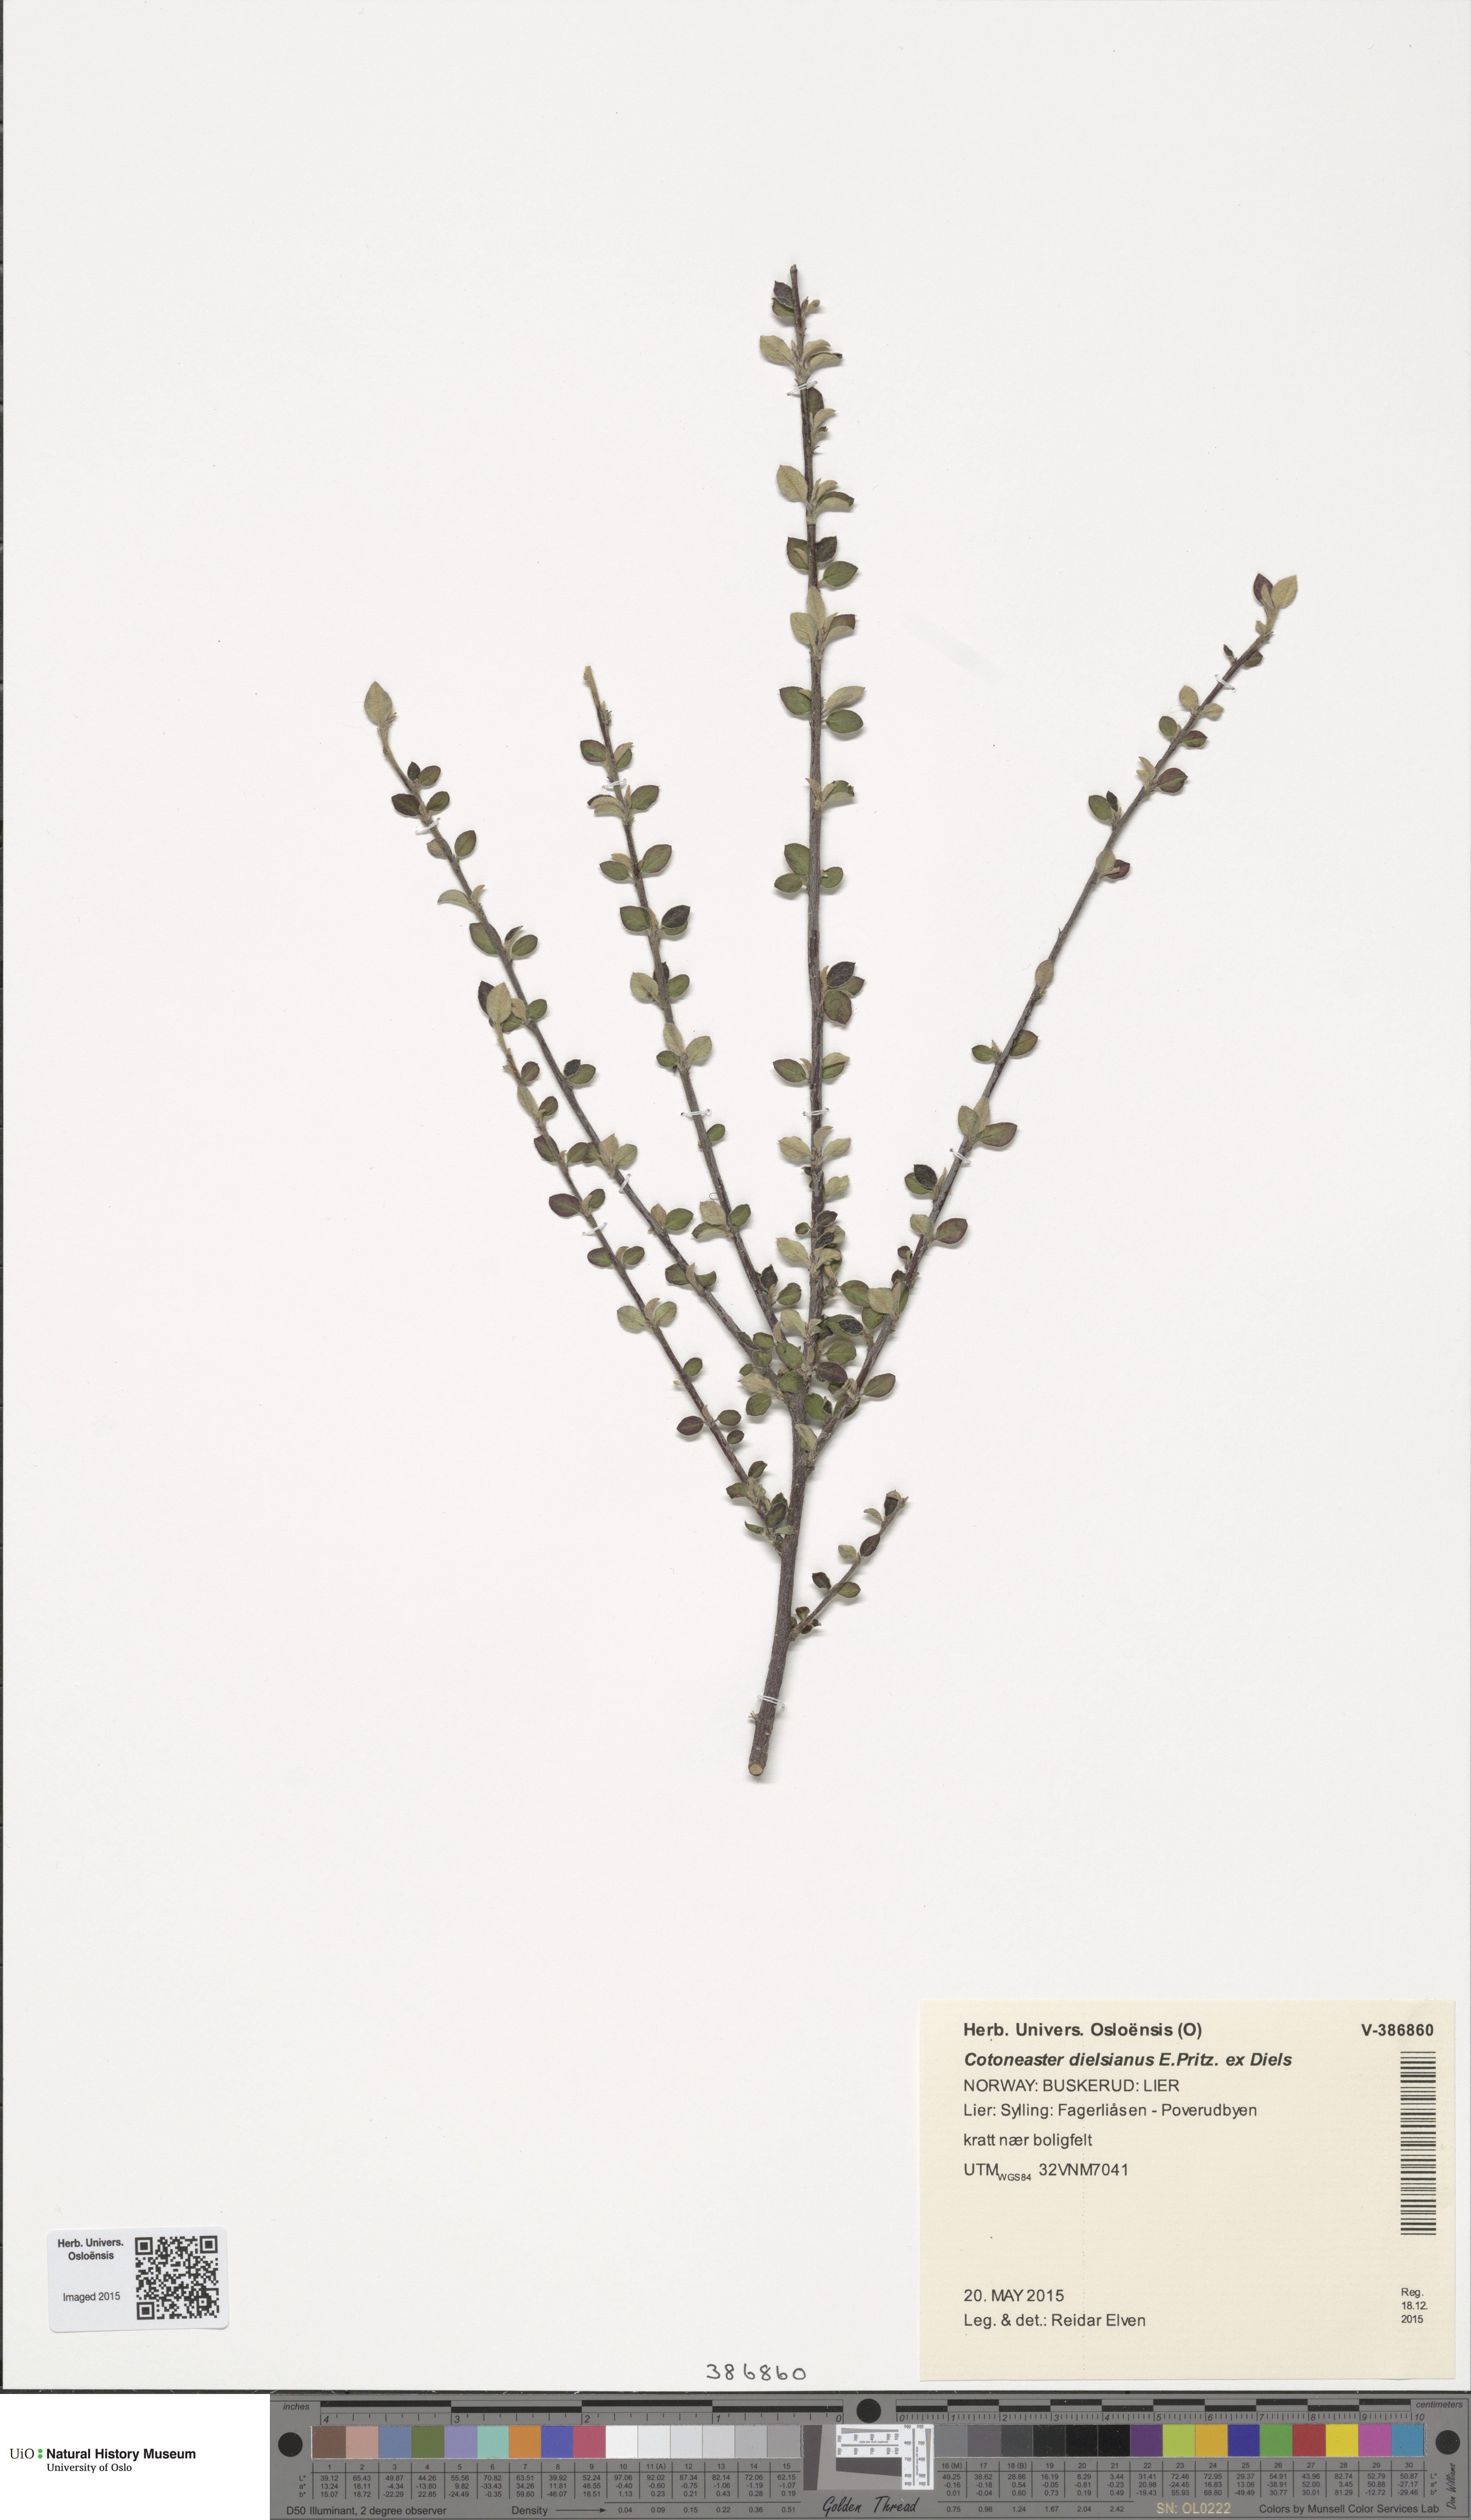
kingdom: Plantae
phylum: Tracheophyta
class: Magnoliopsida
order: Rosales
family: Rosaceae
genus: Cotoneaster
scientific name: Cotoneaster dielsianus
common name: Diels's cotoneaster
